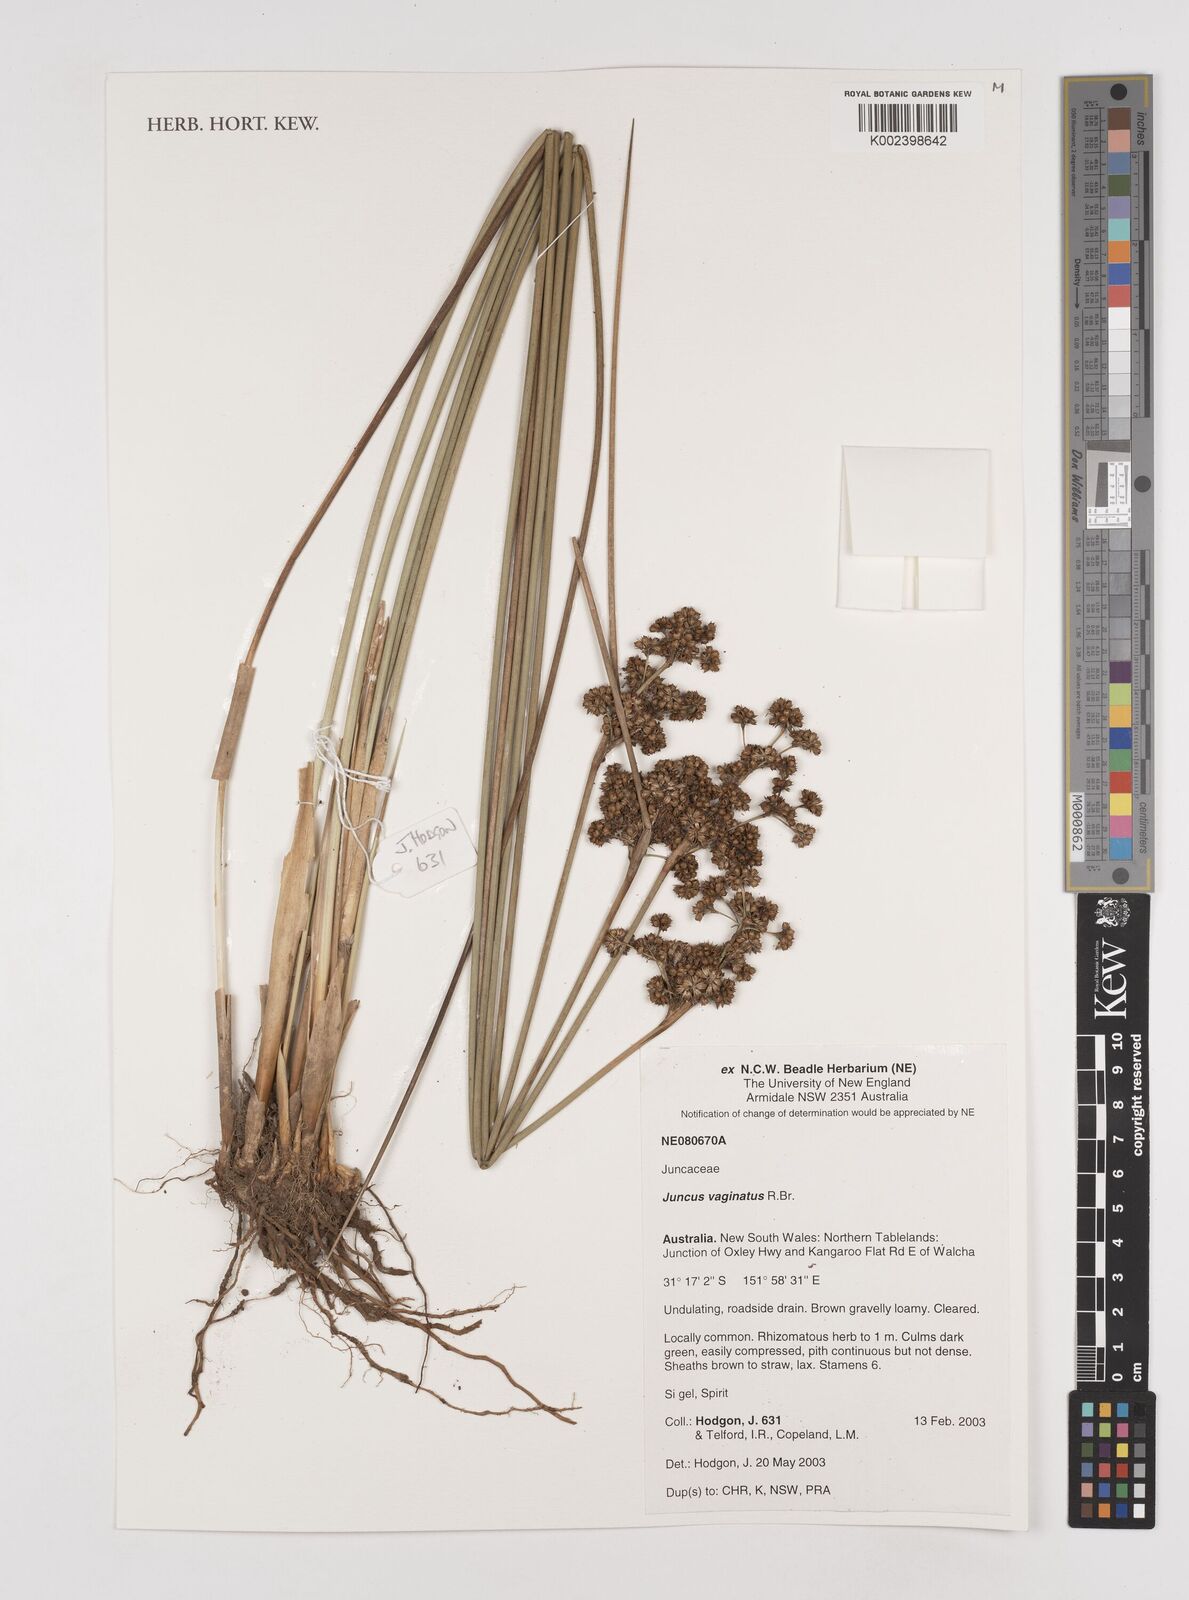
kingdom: Plantae
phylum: Tracheophyta
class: Liliopsida
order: Poales
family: Juncaceae
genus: Juncus
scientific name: Juncus vaginatus
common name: Clustered rush
